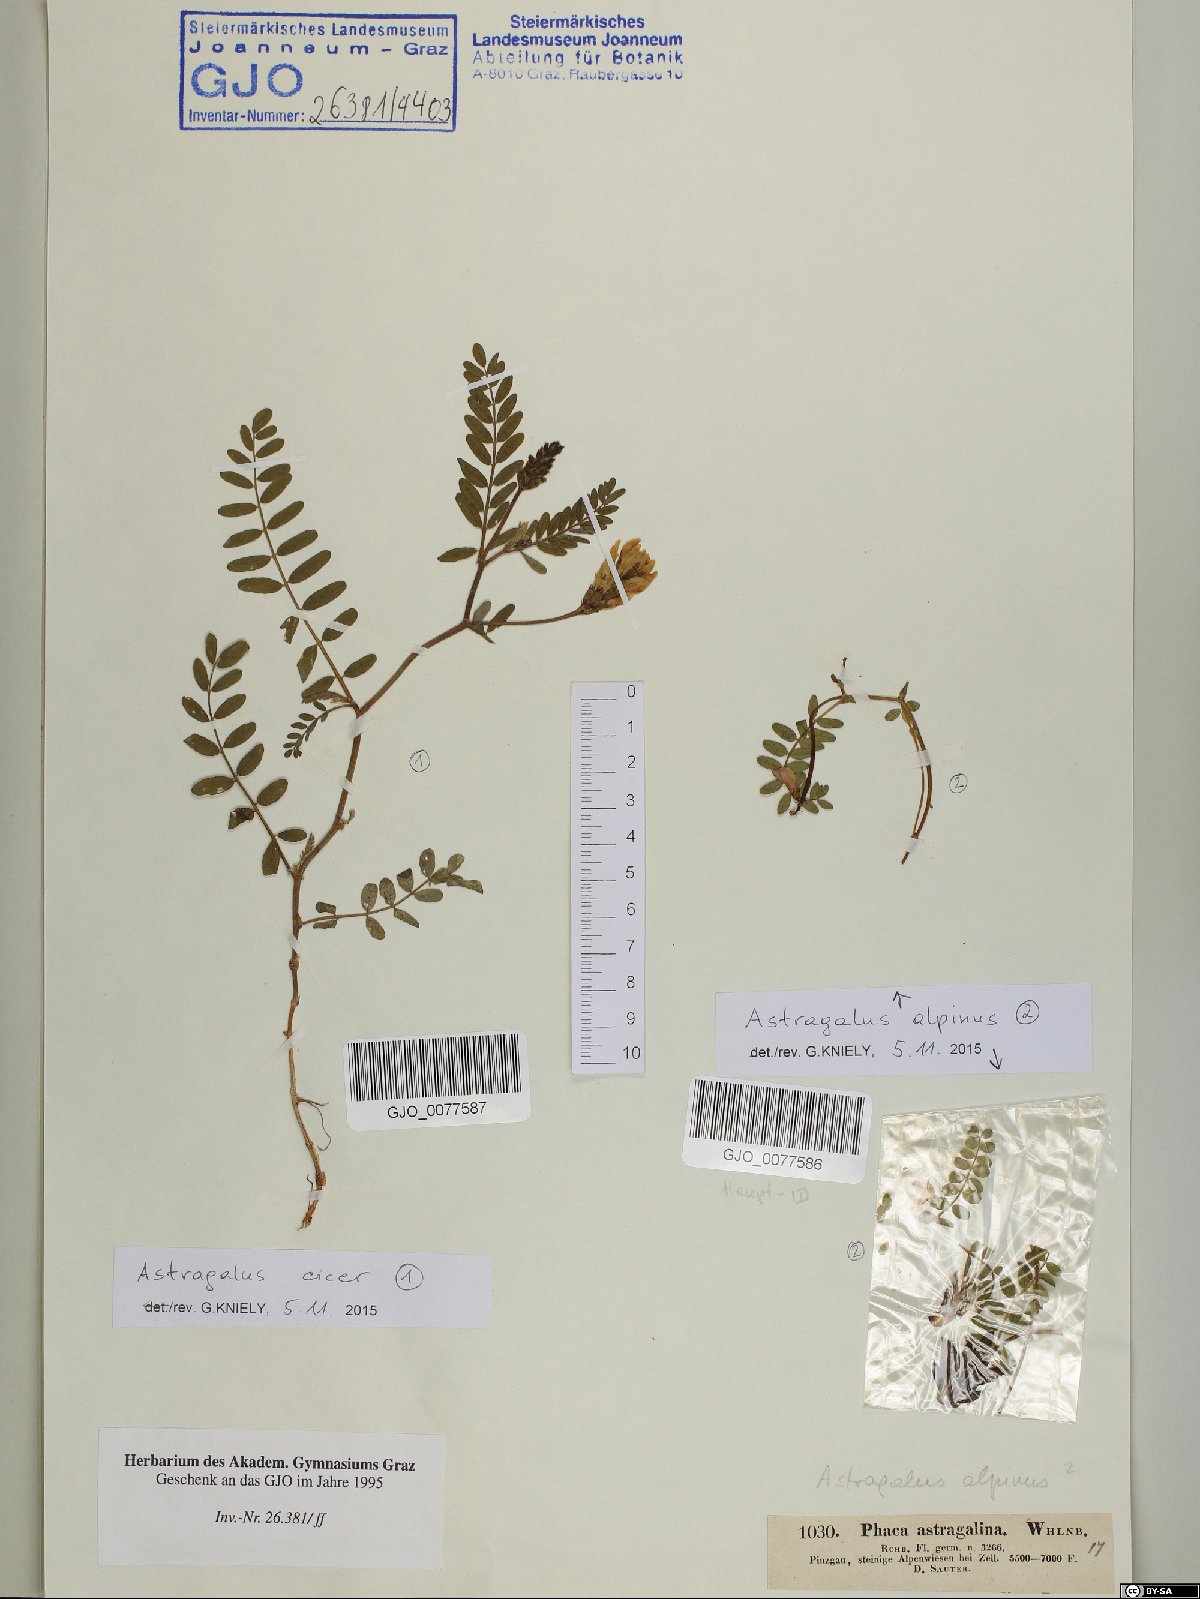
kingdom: Plantae
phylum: Tracheophyta
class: Magnoliopsida
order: Fabales
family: Fabaceae
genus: Astragalus
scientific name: Astragalus cicer
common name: Chick-pea milk-vetch
